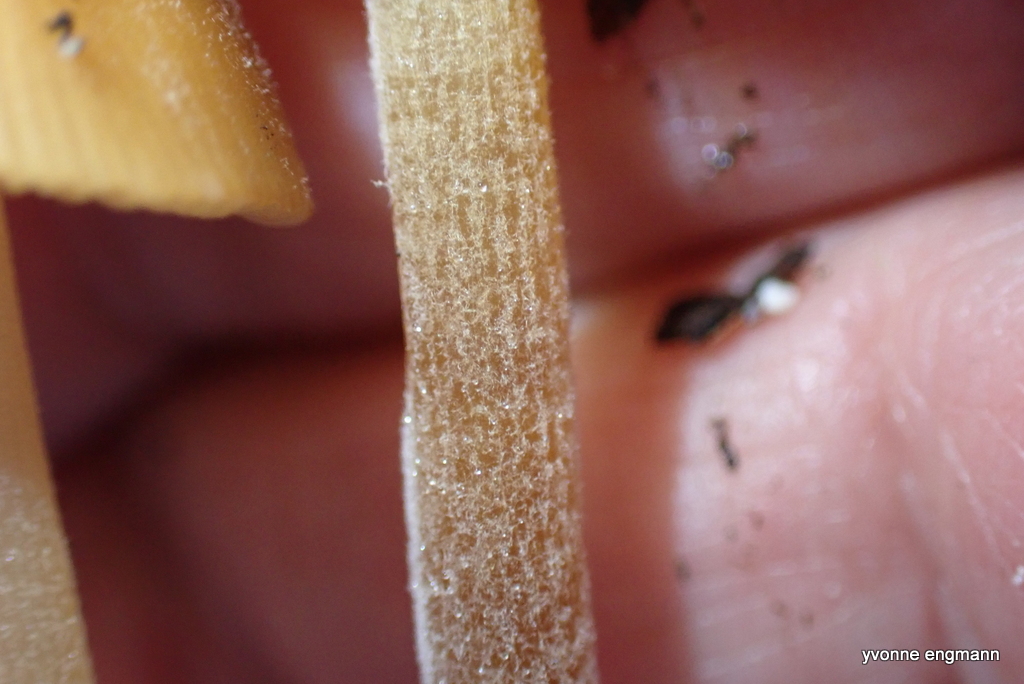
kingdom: Fungi
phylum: Basidiomycota
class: Agaricomycetes
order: Agaricales
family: Bolbitiaceae
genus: Conocybe
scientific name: Conocybe
